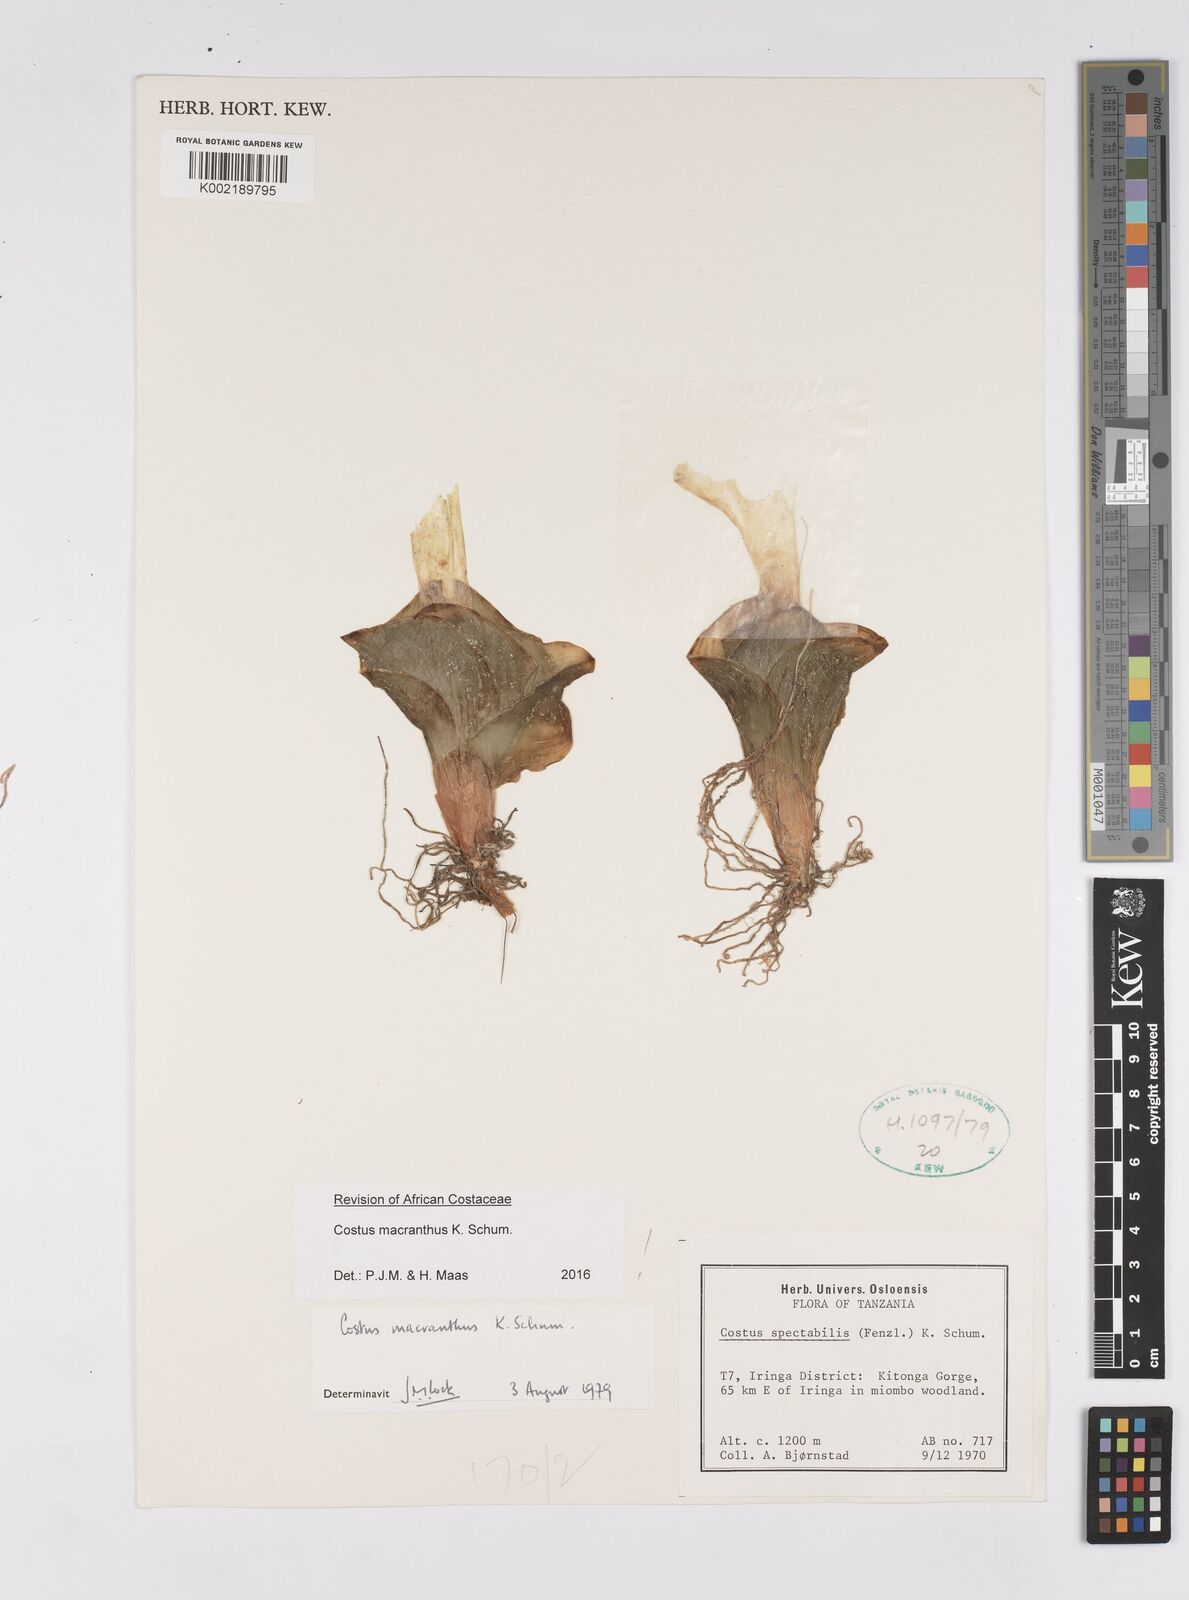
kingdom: Plantae
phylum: Tracheophyta
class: Liliopsida
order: Zingiberales
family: Costaceae
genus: Costus
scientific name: Costus macranthus
